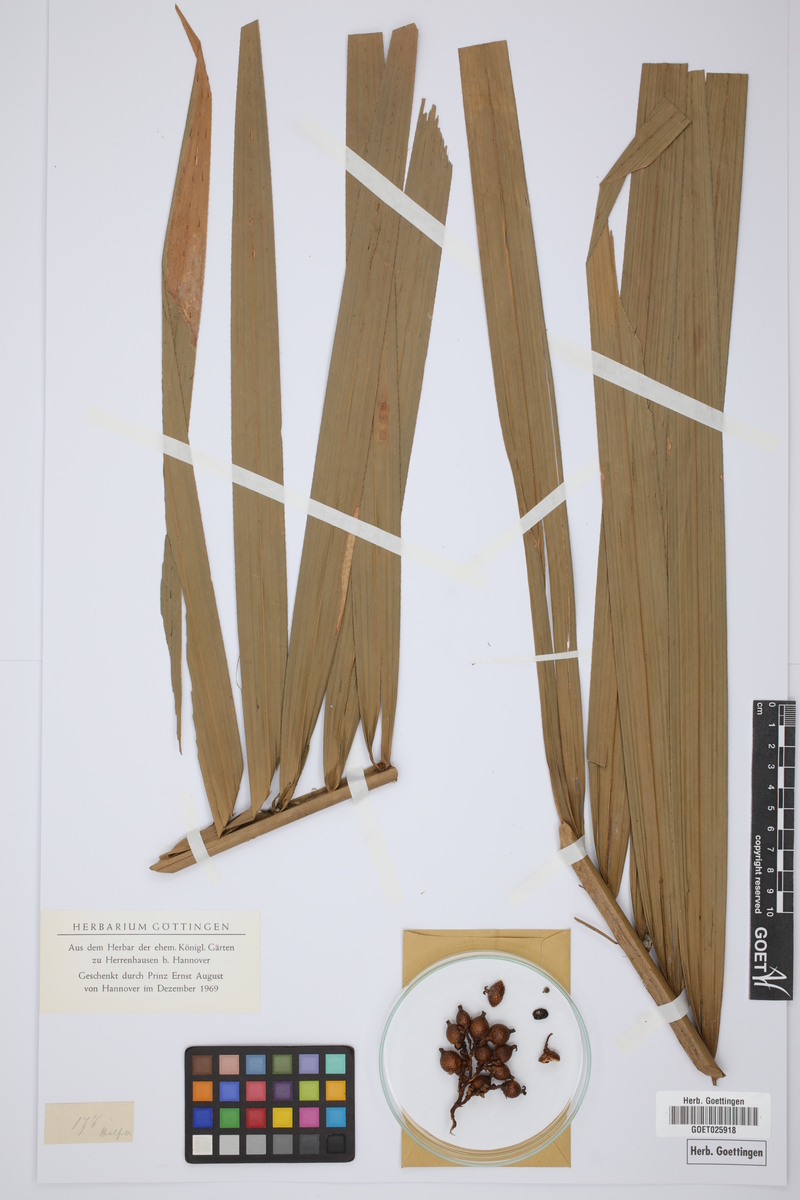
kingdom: Plantae
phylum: Tracheophyta
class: Liliopsida
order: Arecales
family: Arecaceae
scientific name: Arecaceae
